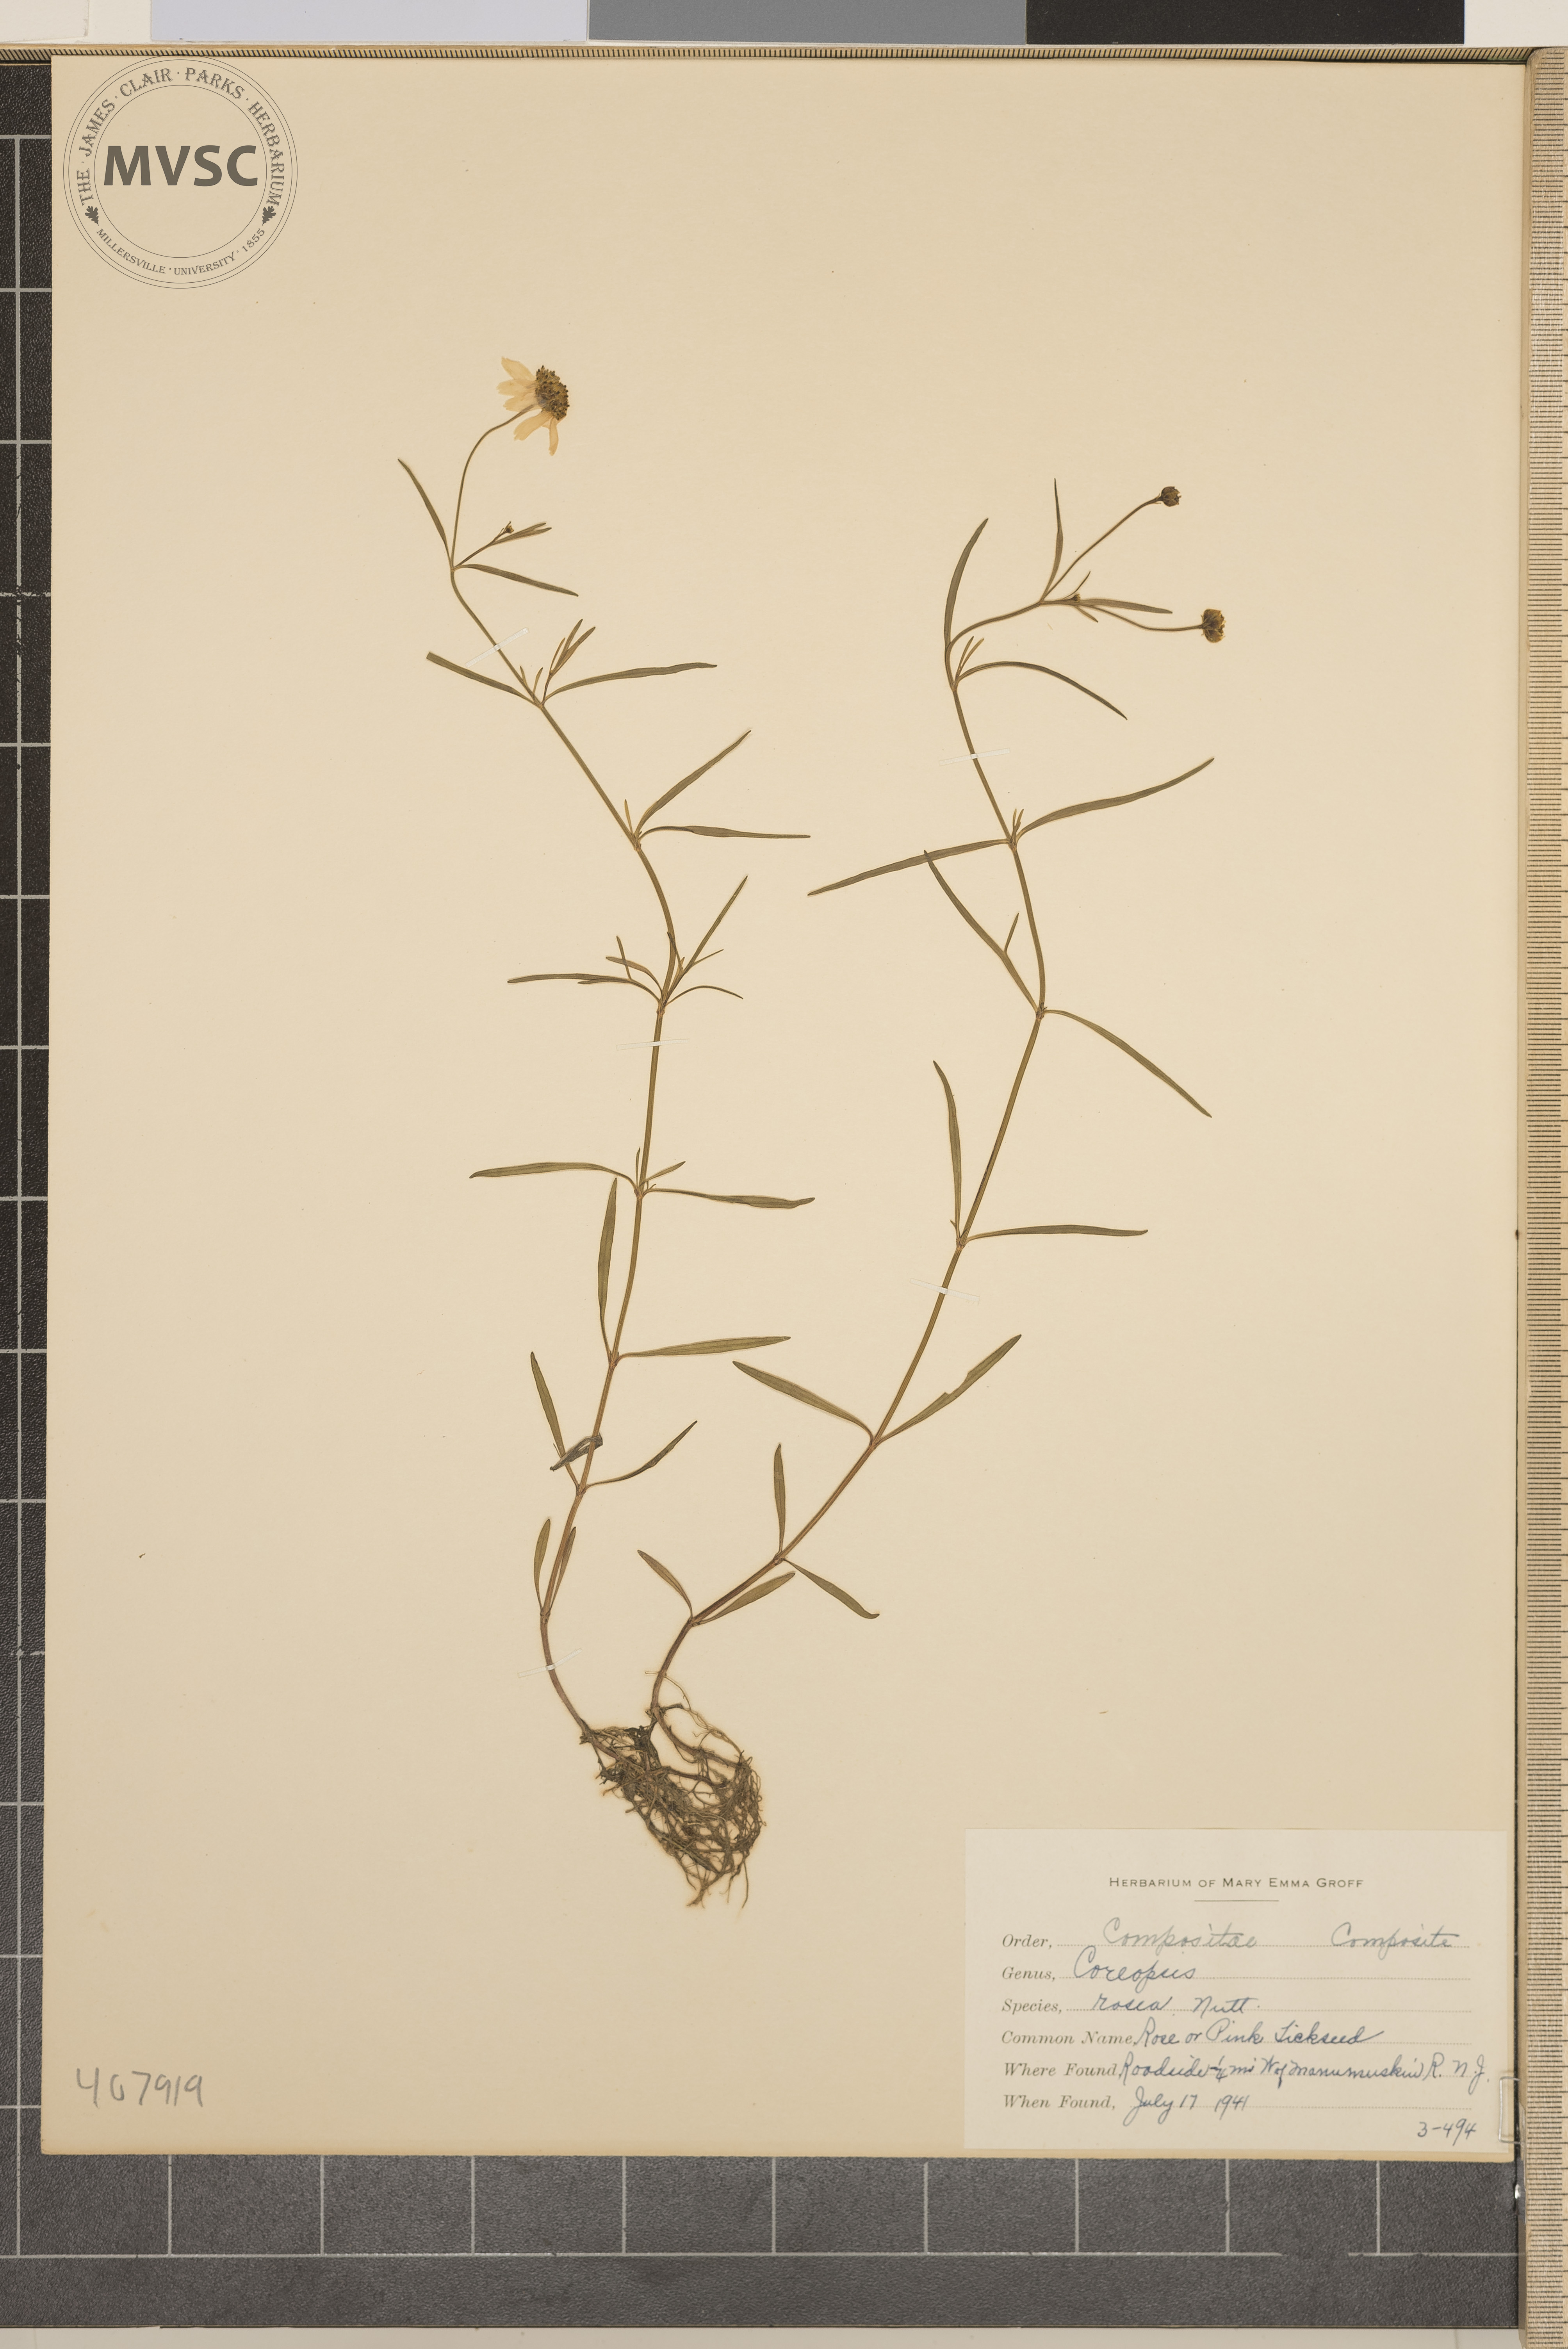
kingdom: Plantae
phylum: Tracheophyta
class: Magnoliopsida
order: Asterales
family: Asteraceae
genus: Coreopsis
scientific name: Coreopsis rosea
